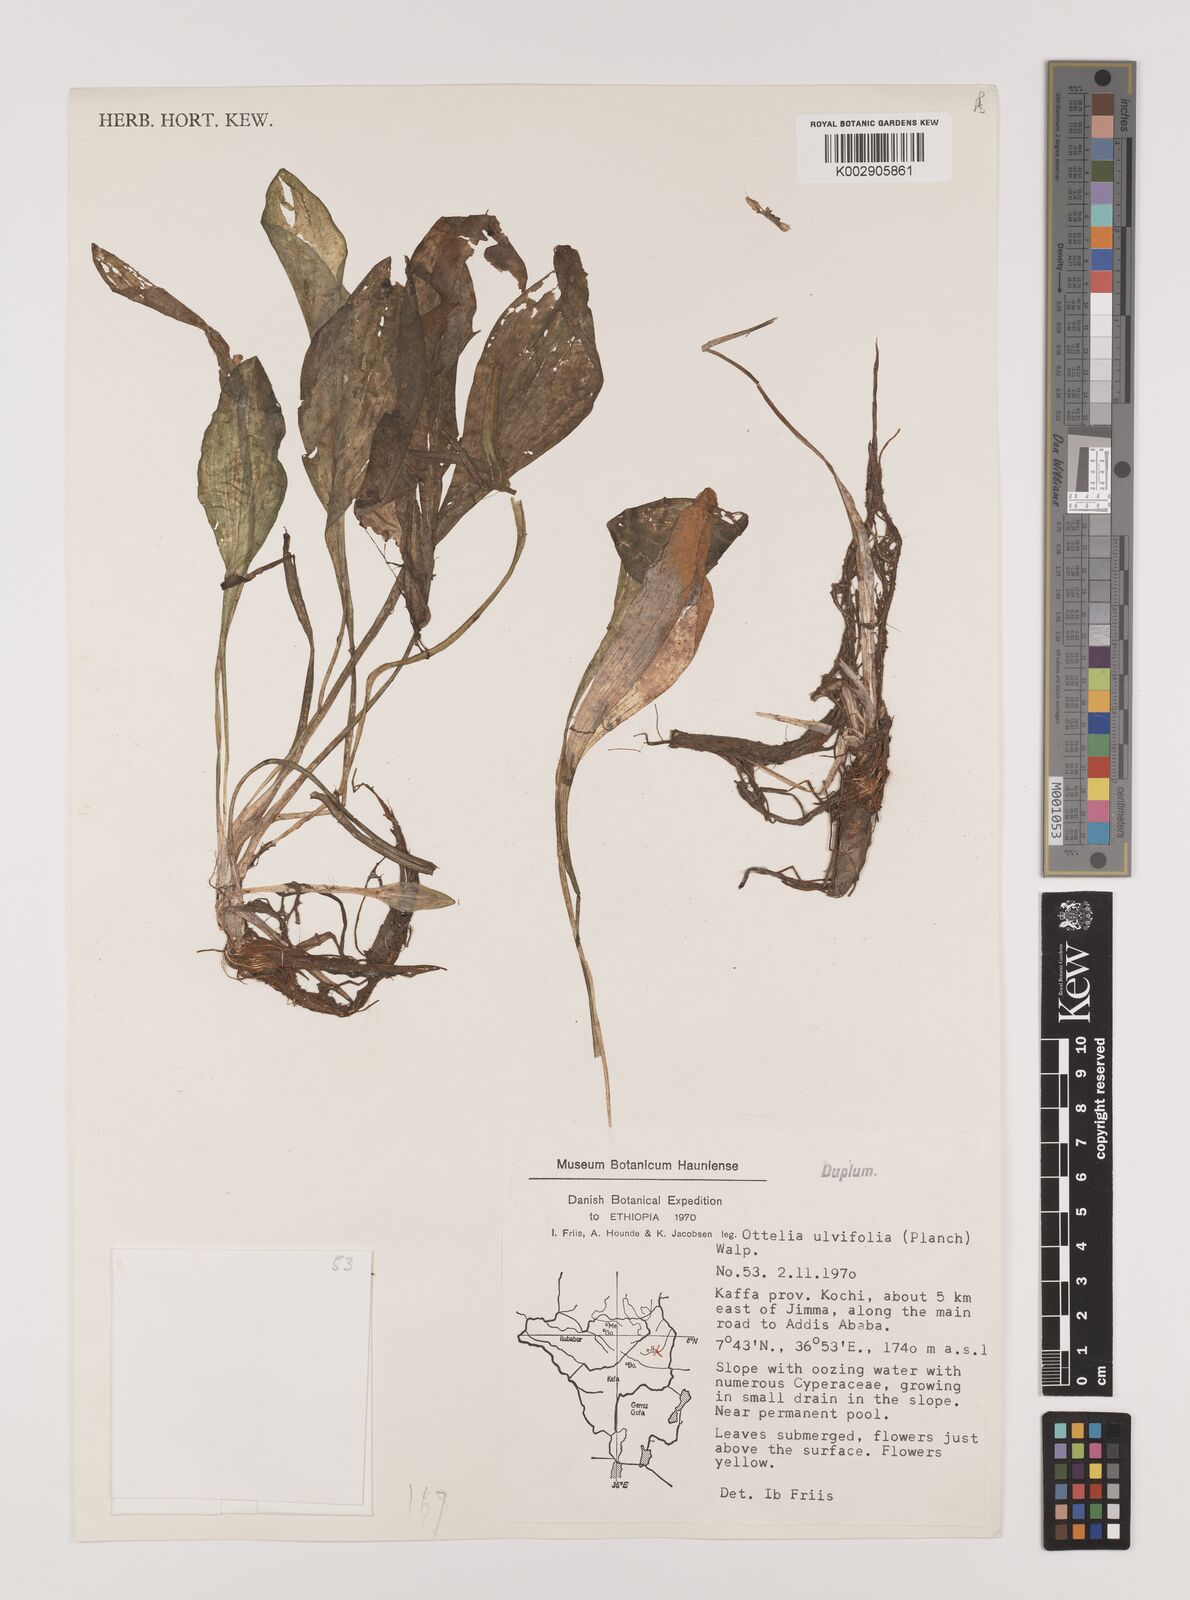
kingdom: Plantae
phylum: Tracheophyta
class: Liliopsida
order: Alismatales
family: Hydrocharitaceae
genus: Ottelia
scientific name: Ottelia ulvifolia
